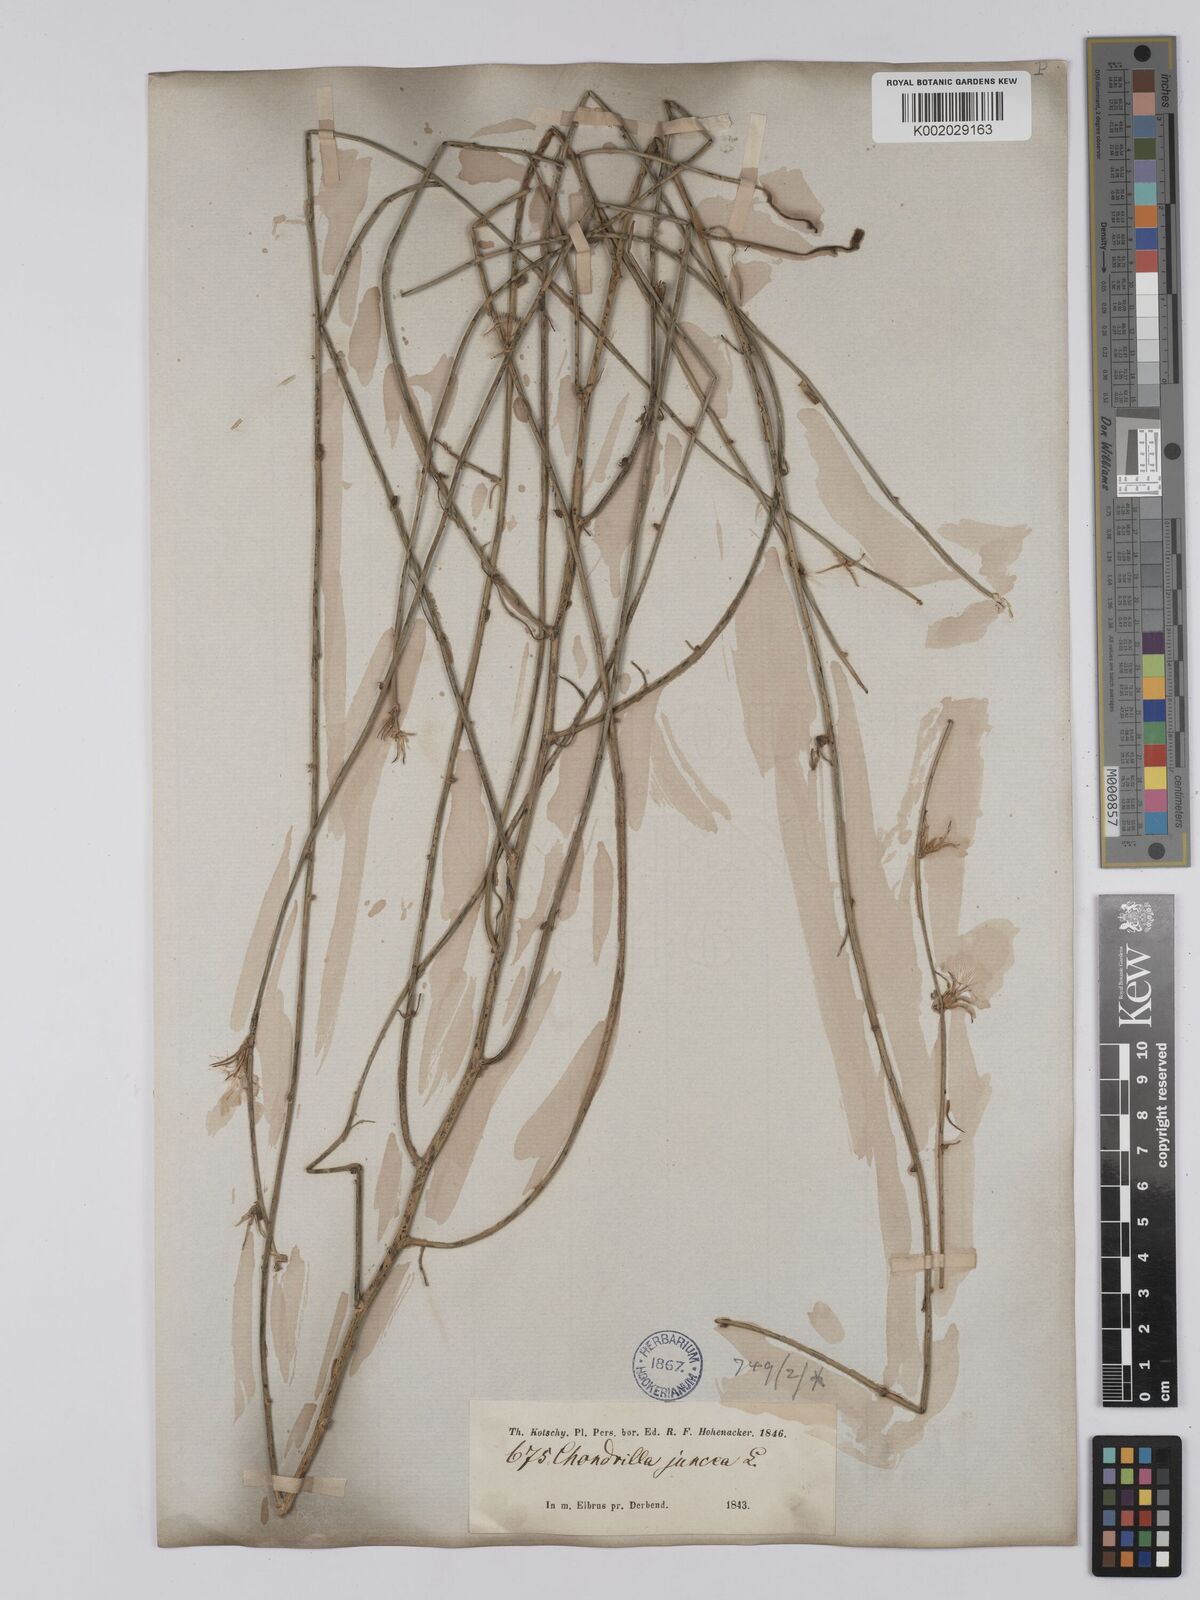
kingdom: Plantae
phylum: Tracheophyta
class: Magnoliopsida
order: Asterales
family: Asteraceae
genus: Chondrilla
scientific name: Chondrilla juncea
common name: Skeleton weed
